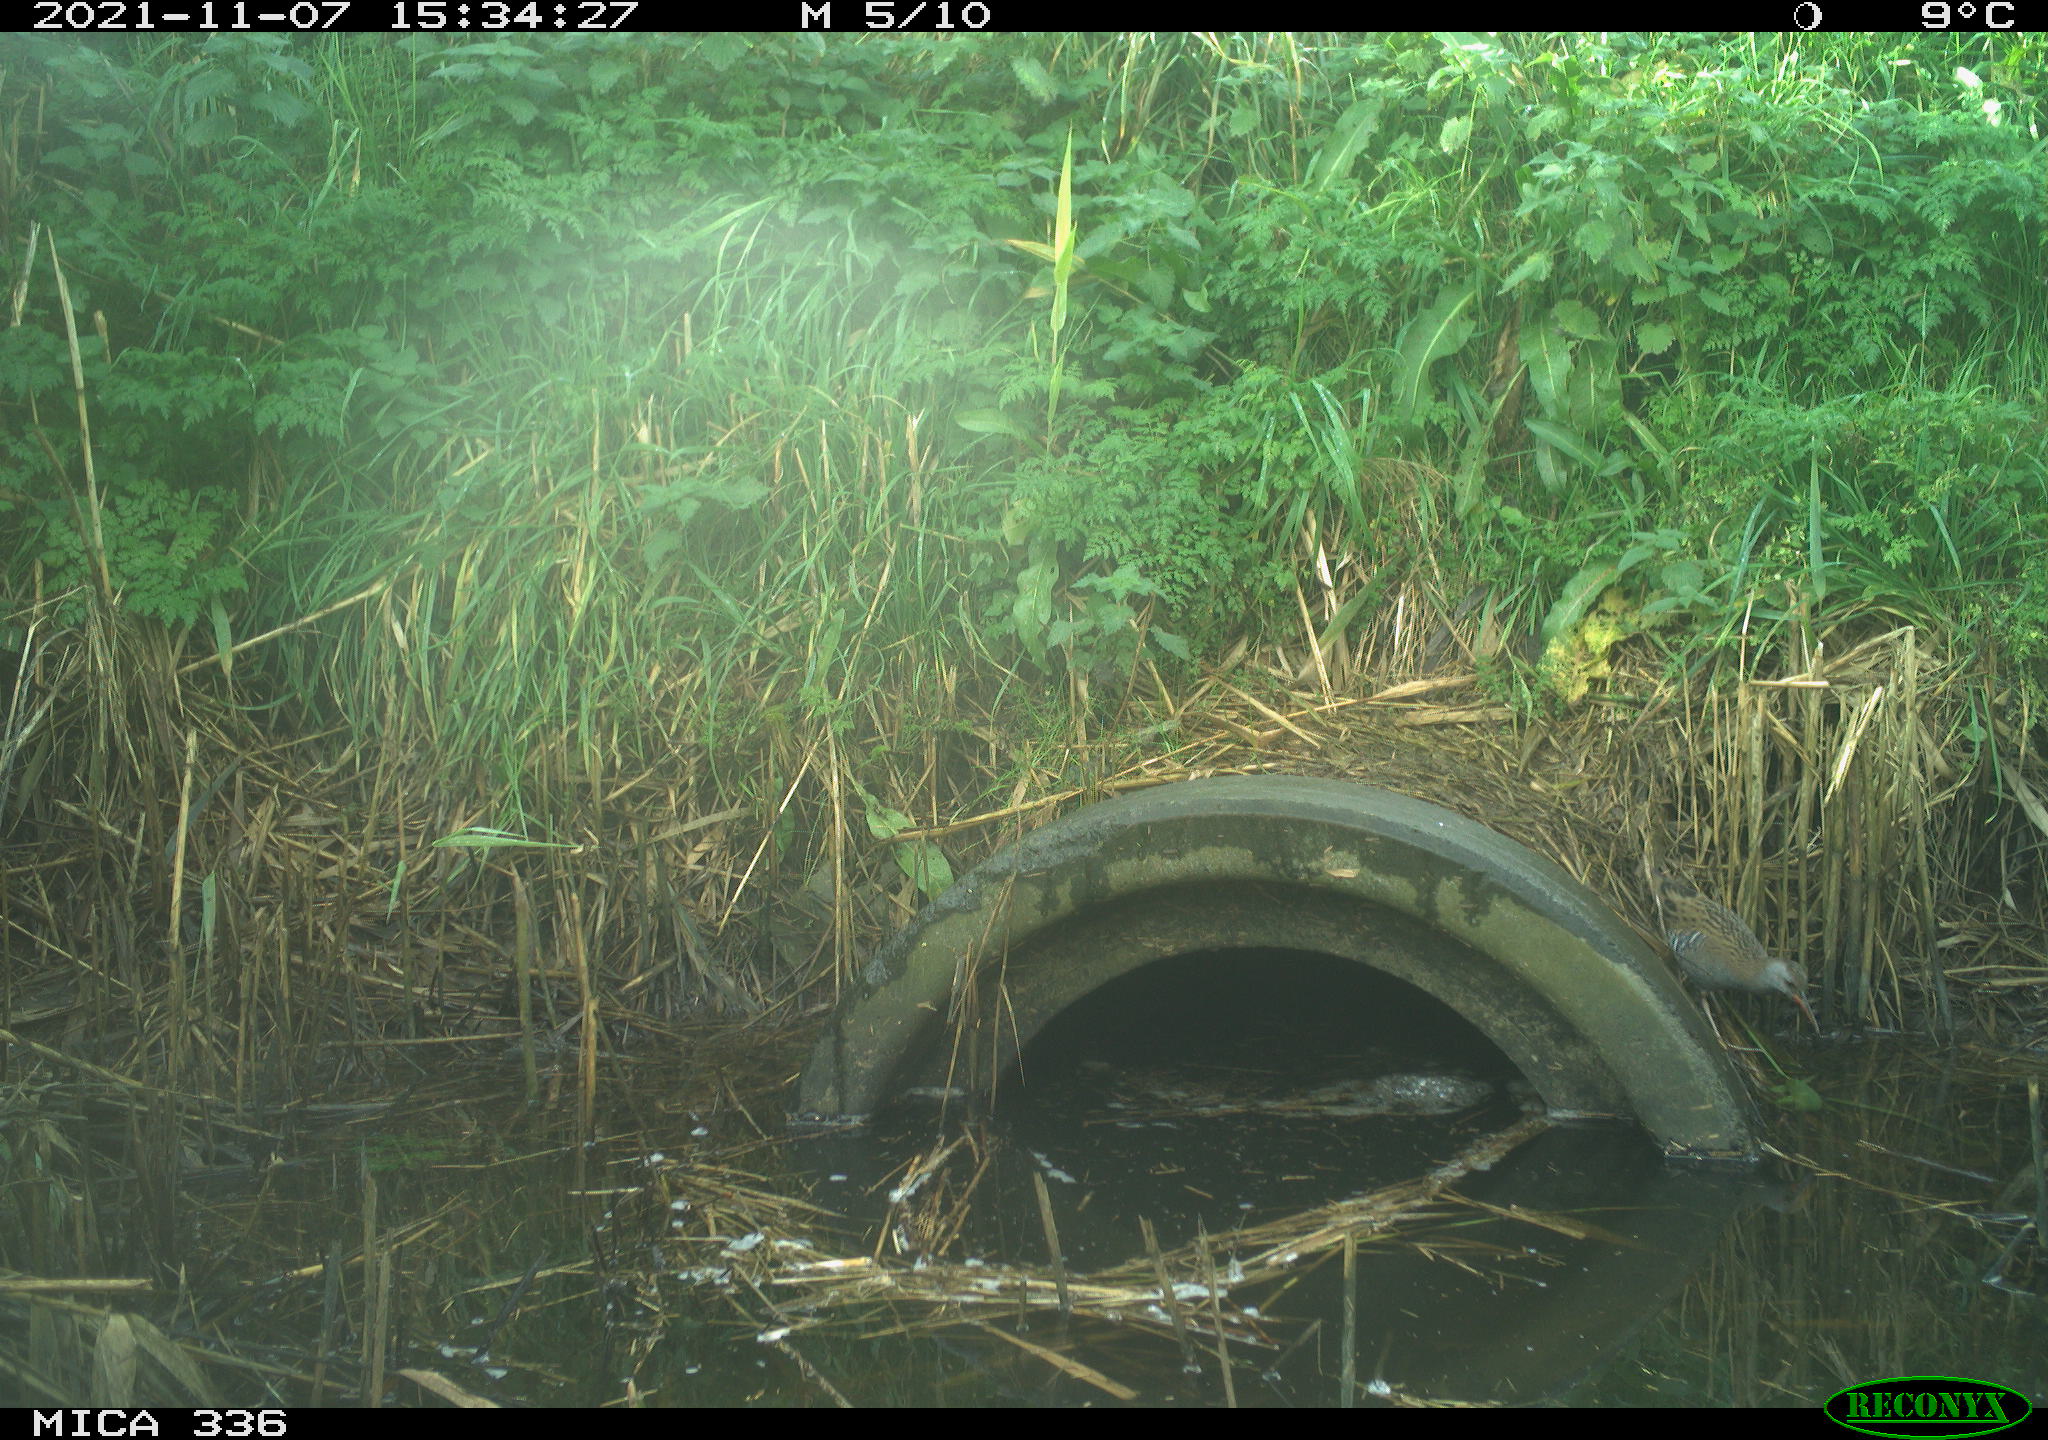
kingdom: Animalia
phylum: Chordata
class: Aves
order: Gruiformes
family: Rallidae
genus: Gallinula
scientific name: Gallinula chloropus
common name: Common moorhen
